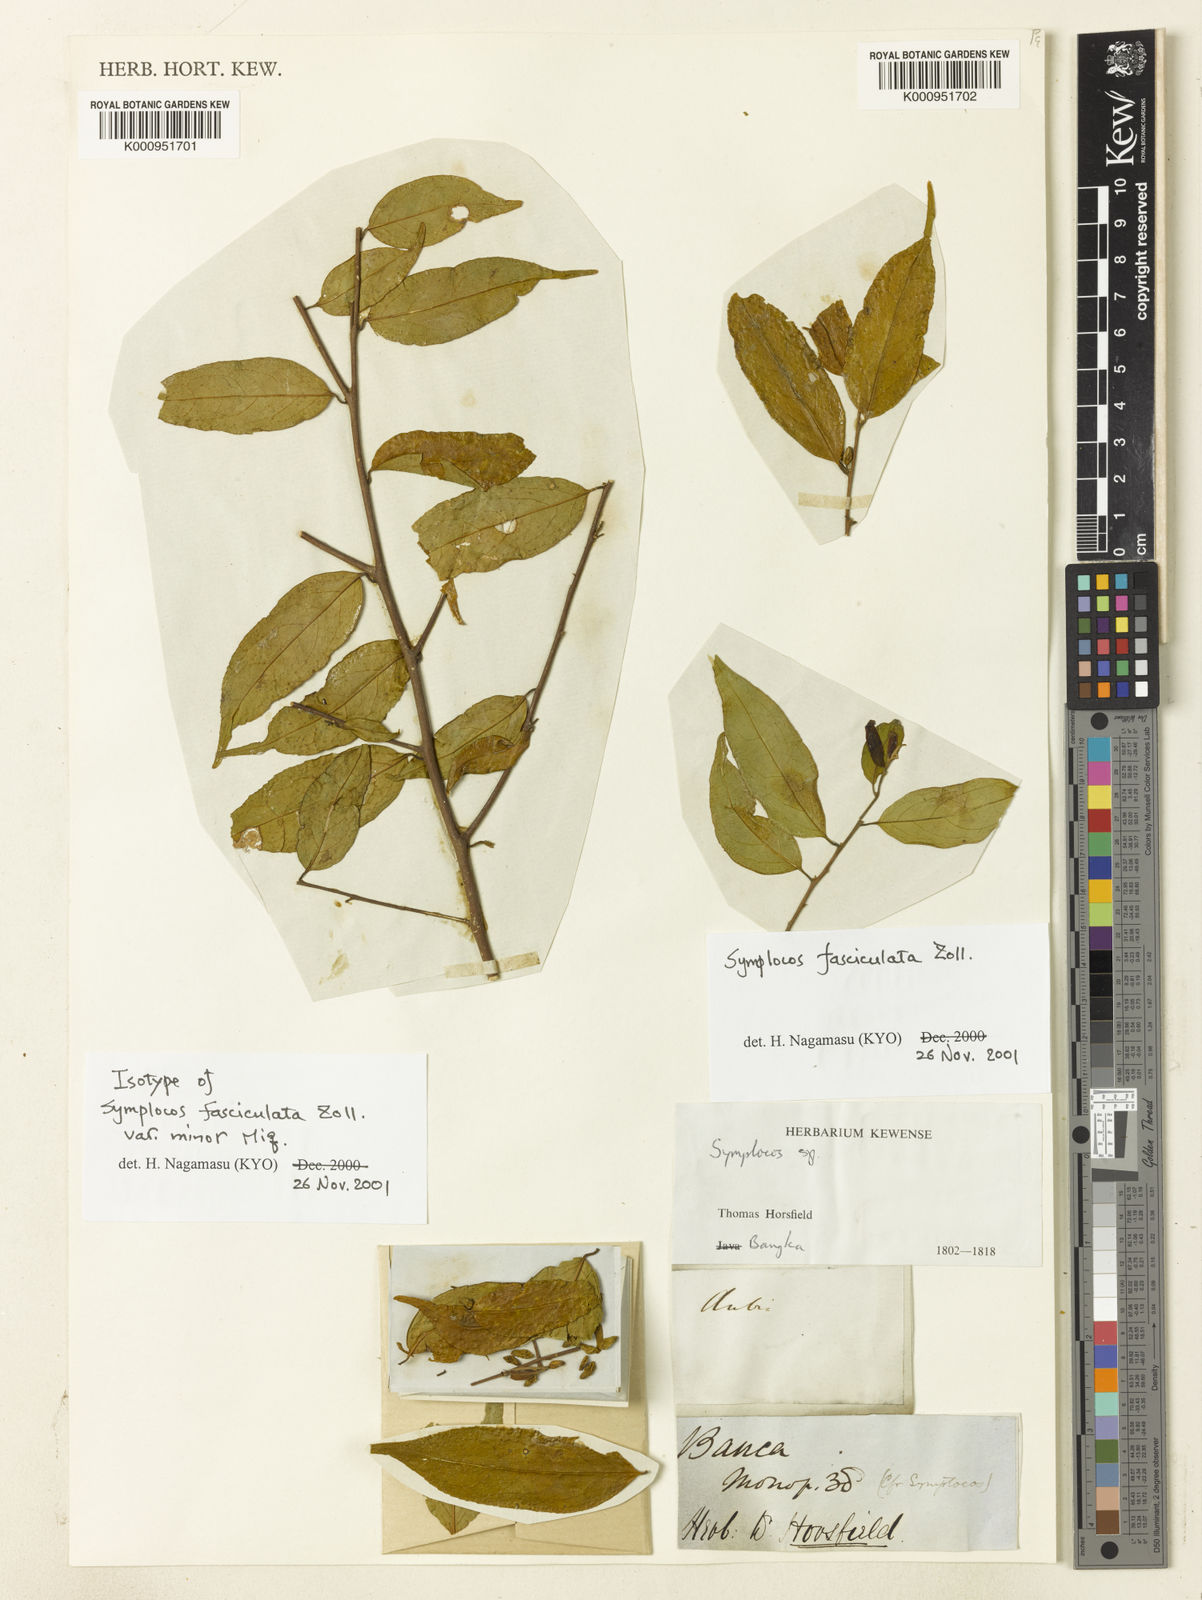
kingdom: Plantae
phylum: Tracheophyta
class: Magnoliopsida
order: Ericales
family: Symplocaceae
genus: Symplocos
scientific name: Symplocos fasciculata
